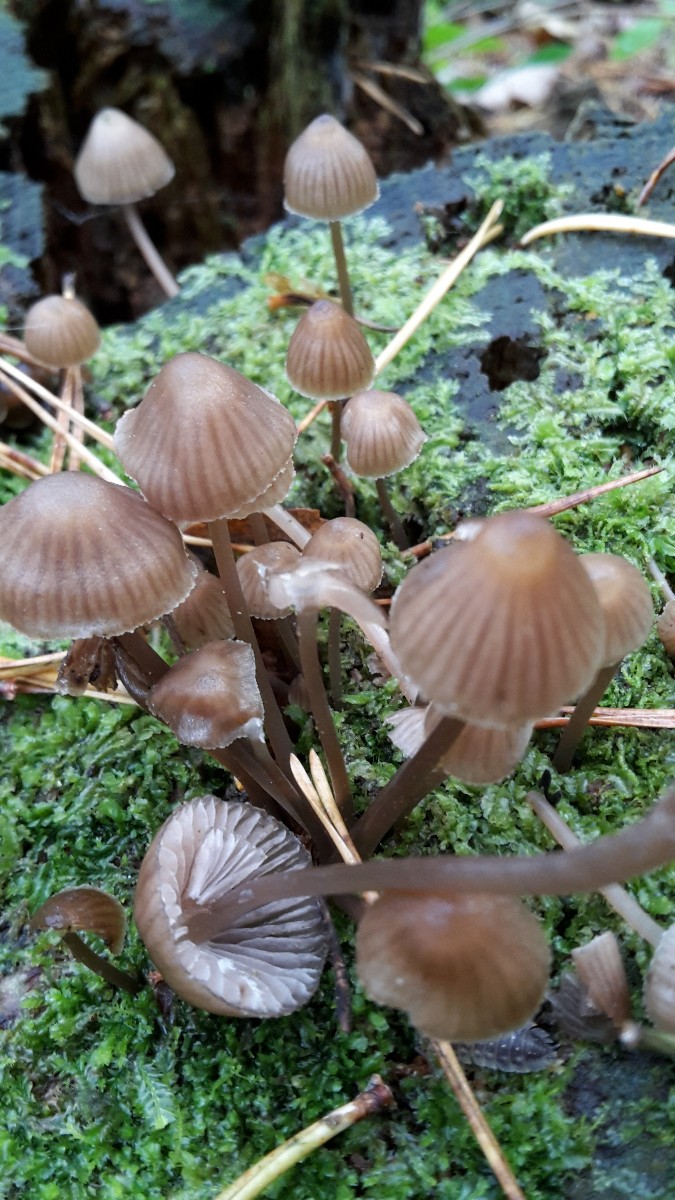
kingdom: Fungi
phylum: Basidiomycota
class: Agaricomycetes
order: Agaricales
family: Mycenaceae
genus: Mycena
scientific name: Mycena stipata
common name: stinkende huesvamp
